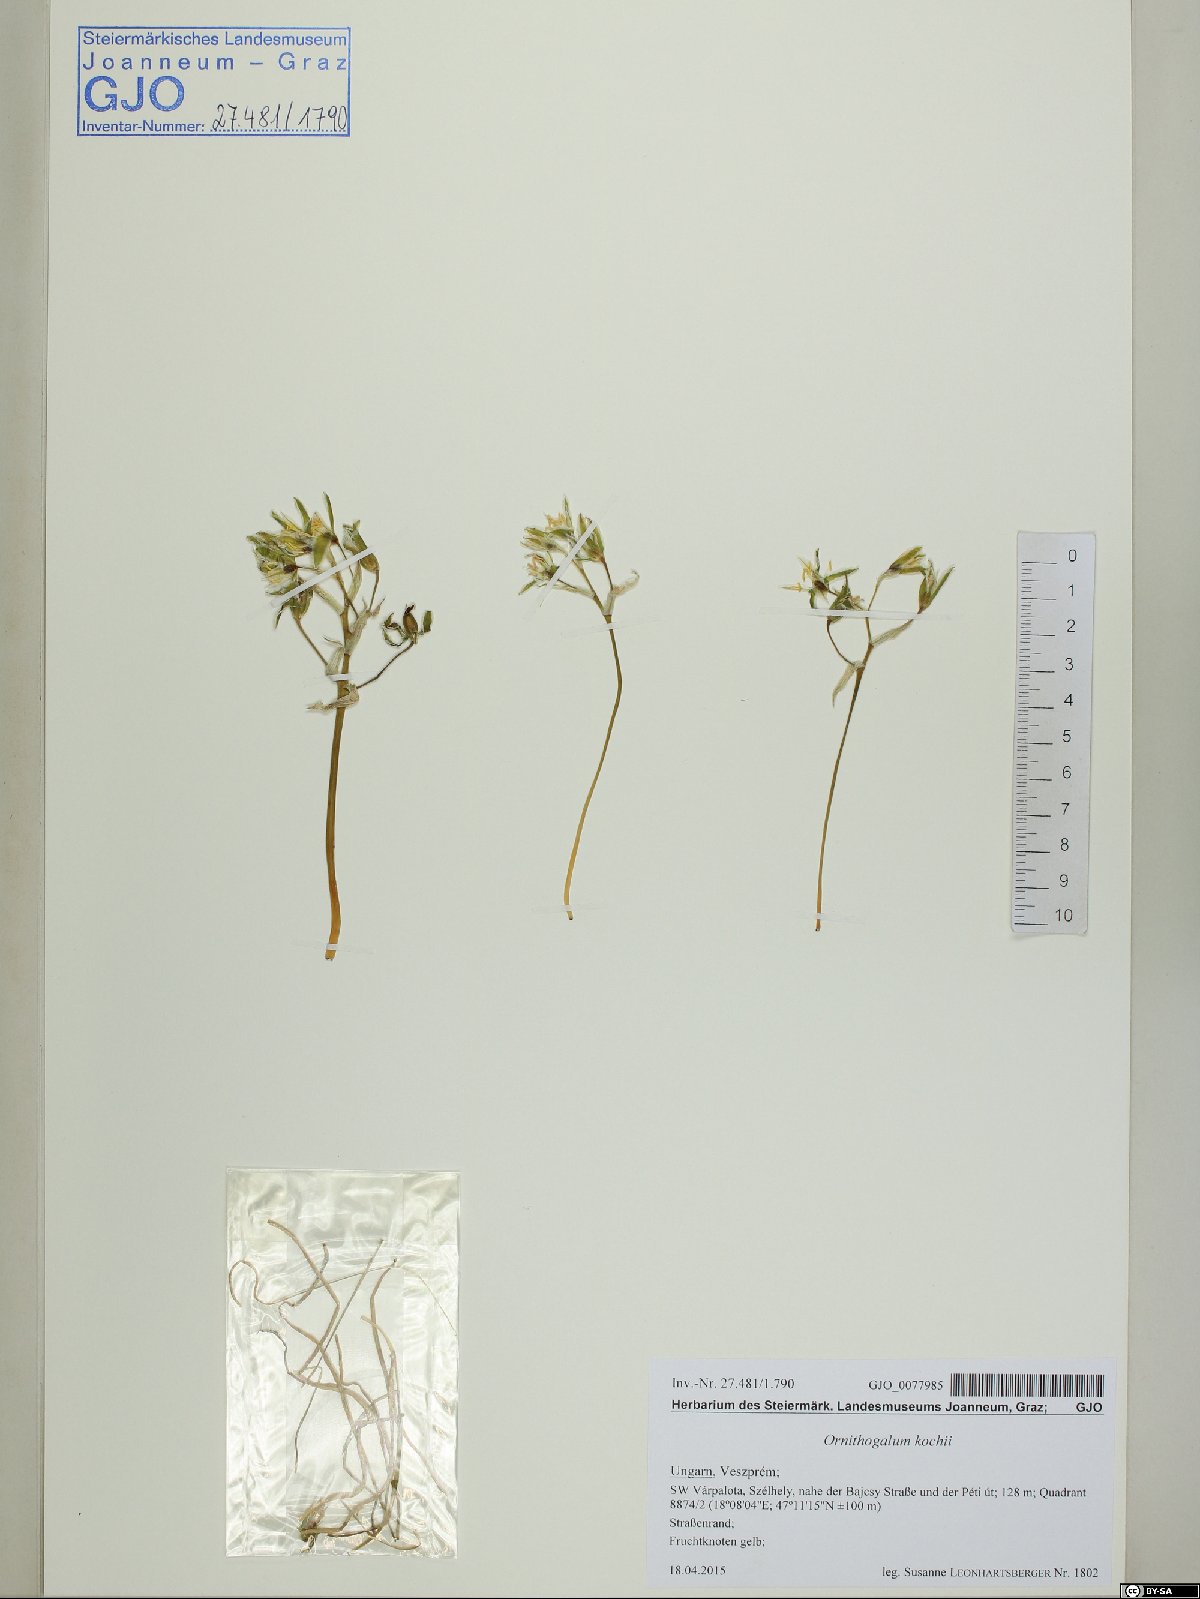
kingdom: Plantae
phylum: Tracheophyta
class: Liliopsida
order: Asparagales
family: Asparagaceae
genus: Ornithogalum
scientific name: Ornithogalum orthophyllum
